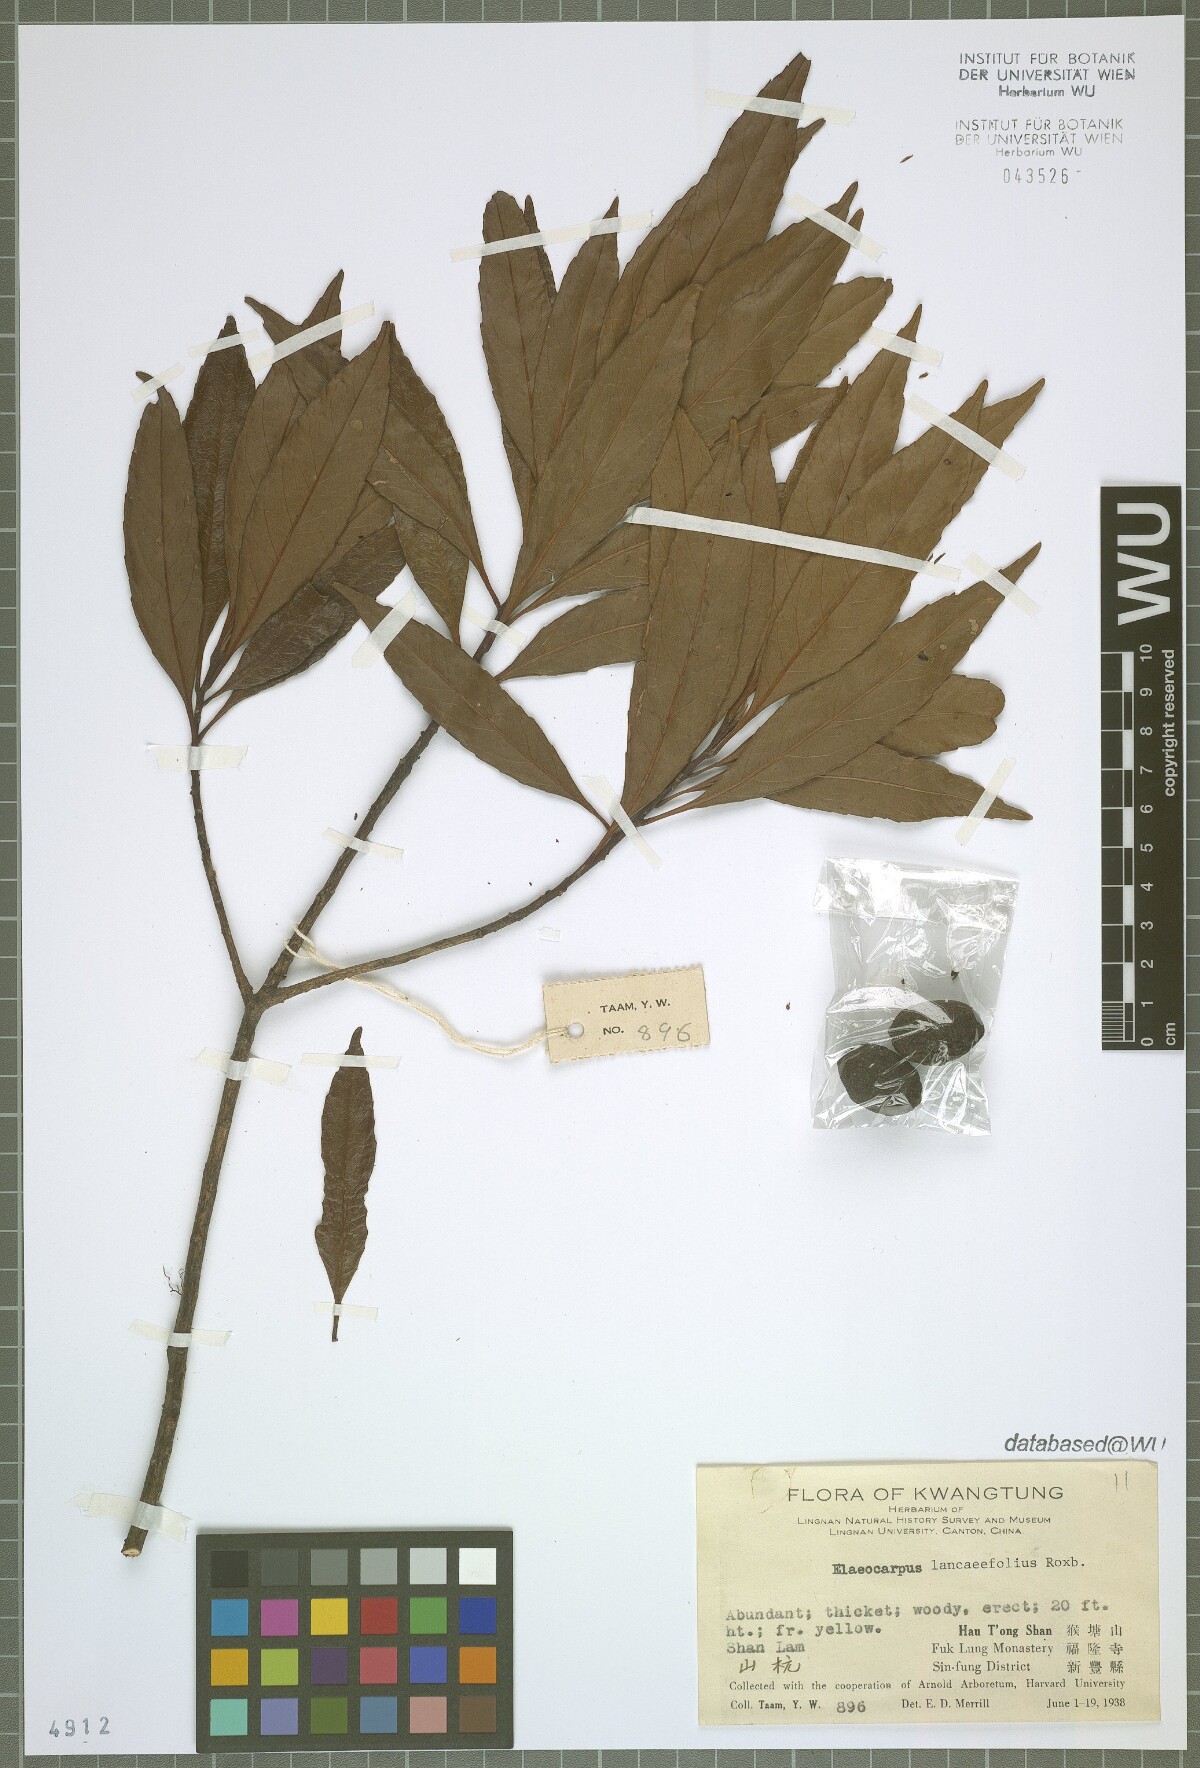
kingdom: Plantae
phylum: Tracheophyta
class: Magnoliopsida
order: Oxalidales
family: Elaeocarpaceae
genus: Elaeocarpus
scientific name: Elaeocarpus
